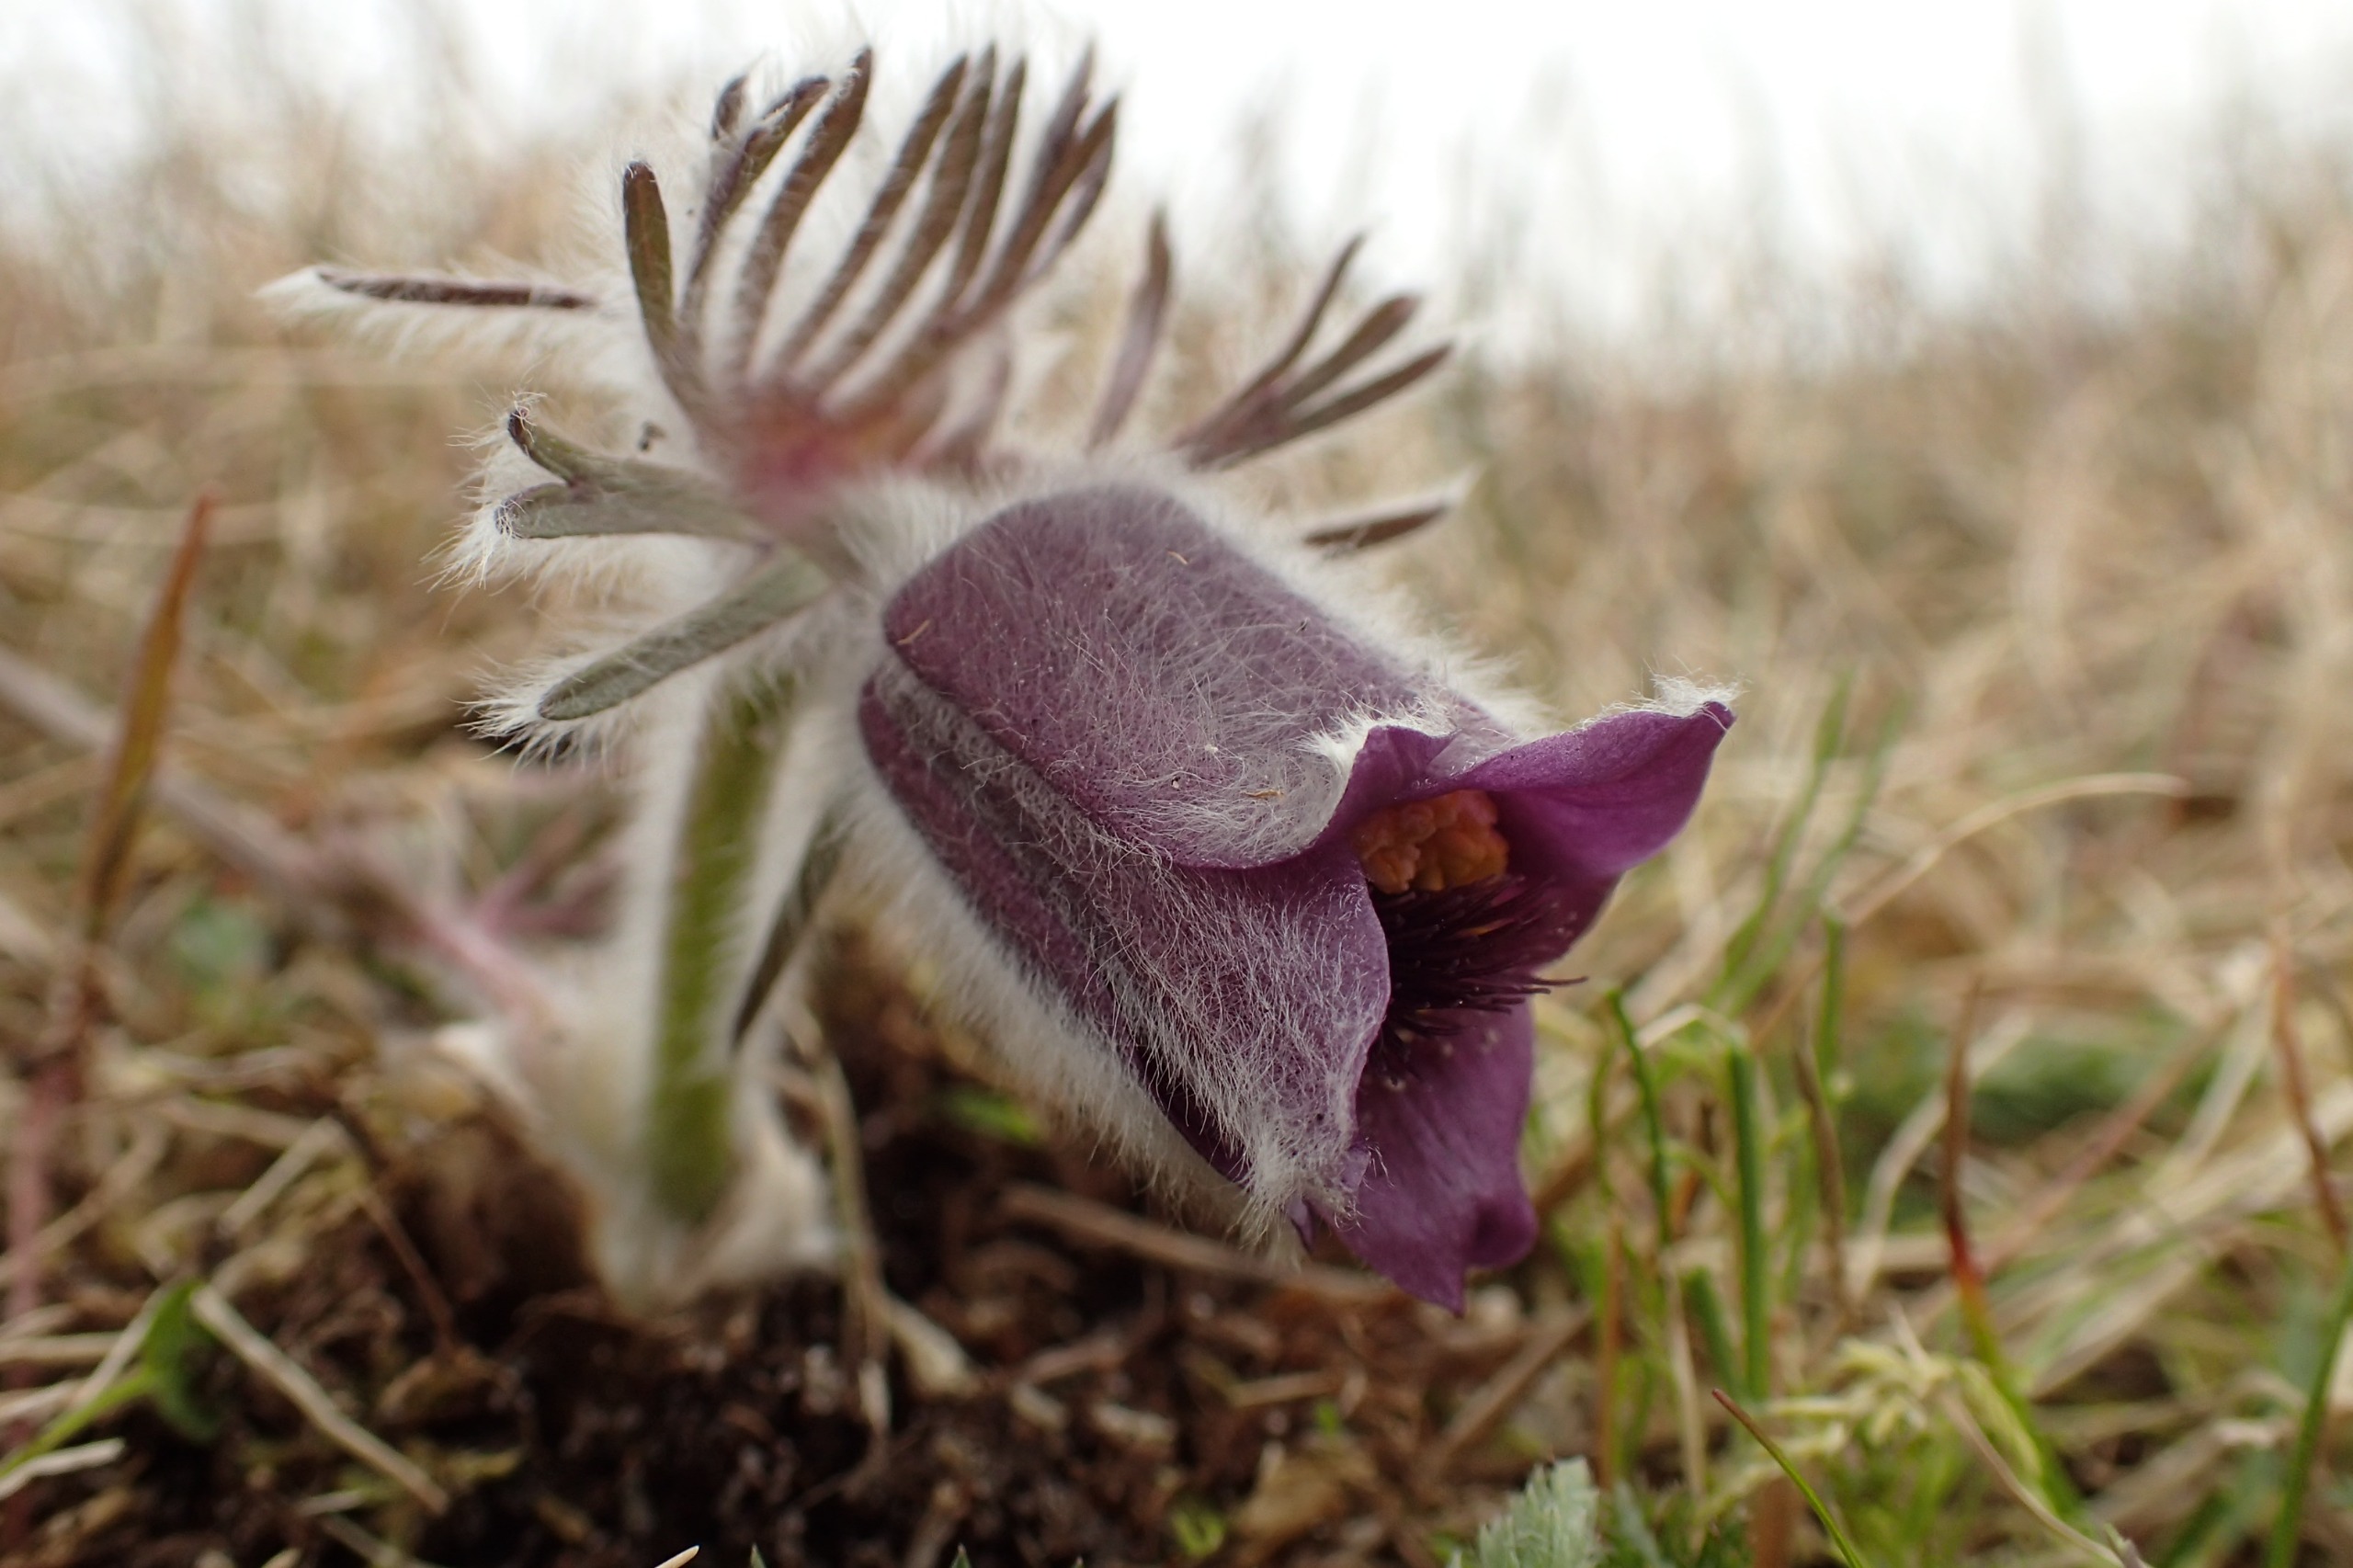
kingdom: Plantae
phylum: Tracheophyta
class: Magnoliopsida
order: Ranunculales
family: Ranunculaceae
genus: Pulsatilla
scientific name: Pulsatilla pratensis
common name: Nikkende kobjælde
